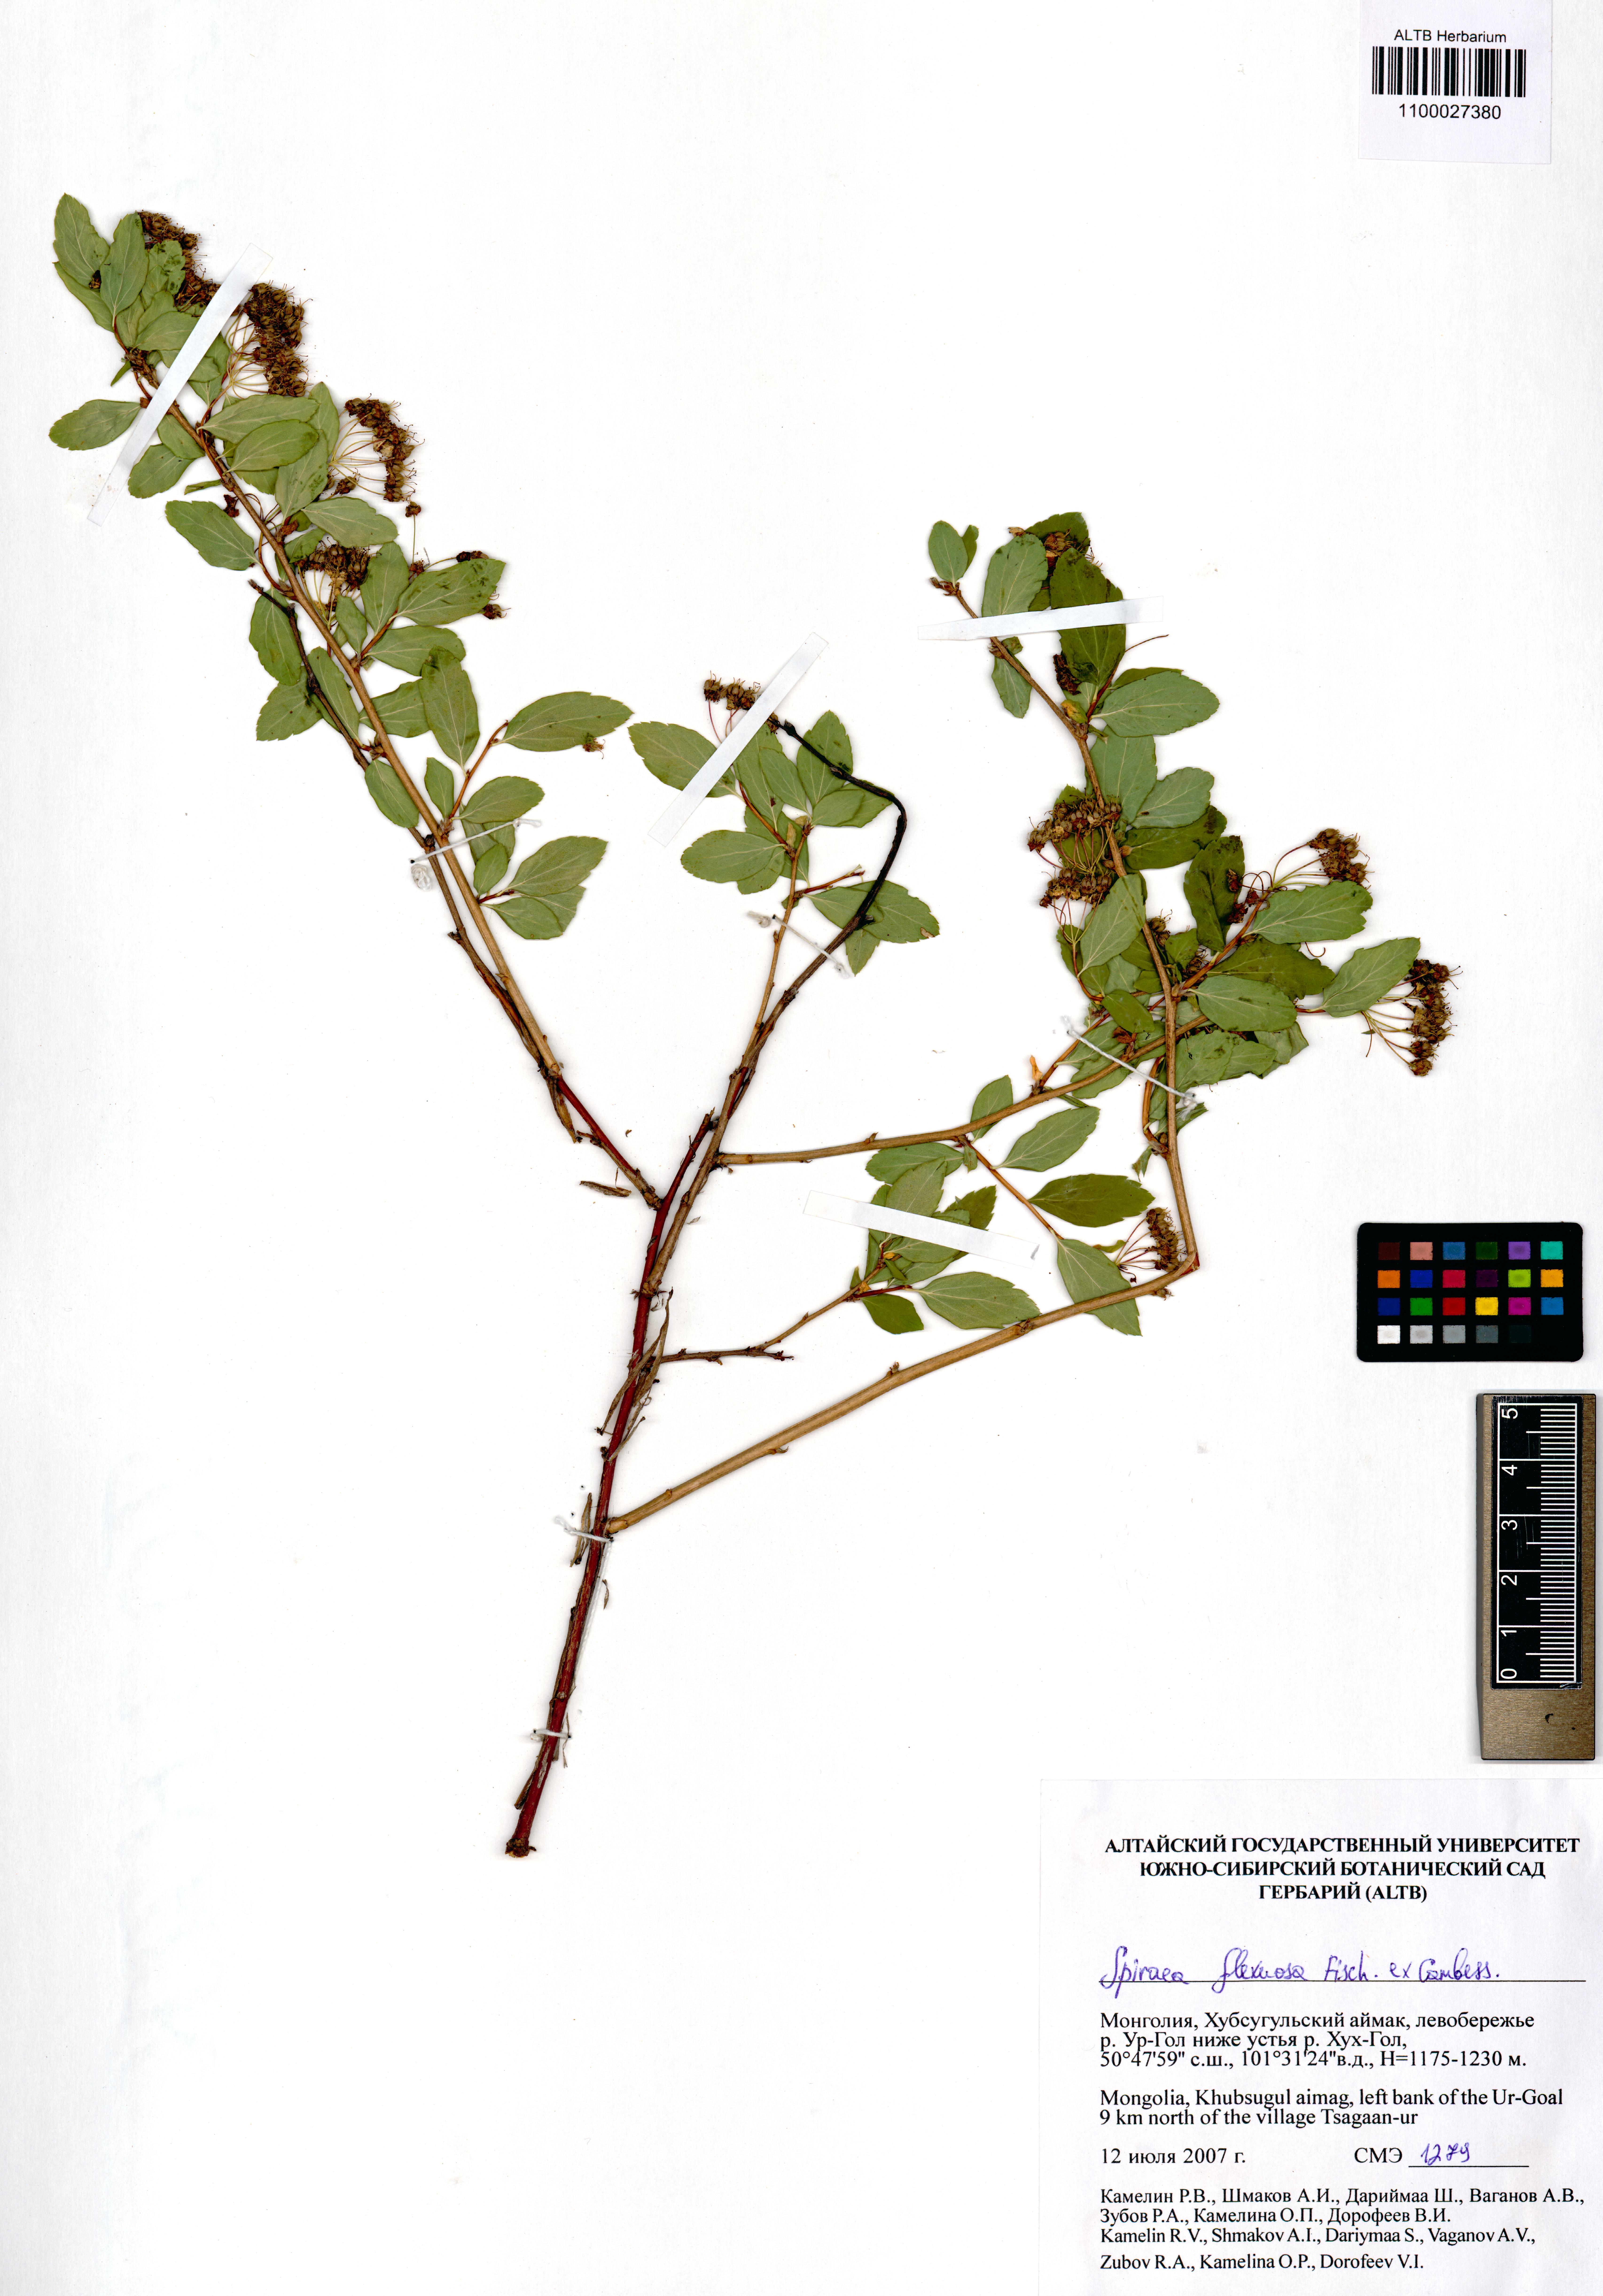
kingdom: Plantae
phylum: Tracheophyta
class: Magnoliopsida
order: Rosales
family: Rosaceae
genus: Spiraea
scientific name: Spiraea flexuosa
